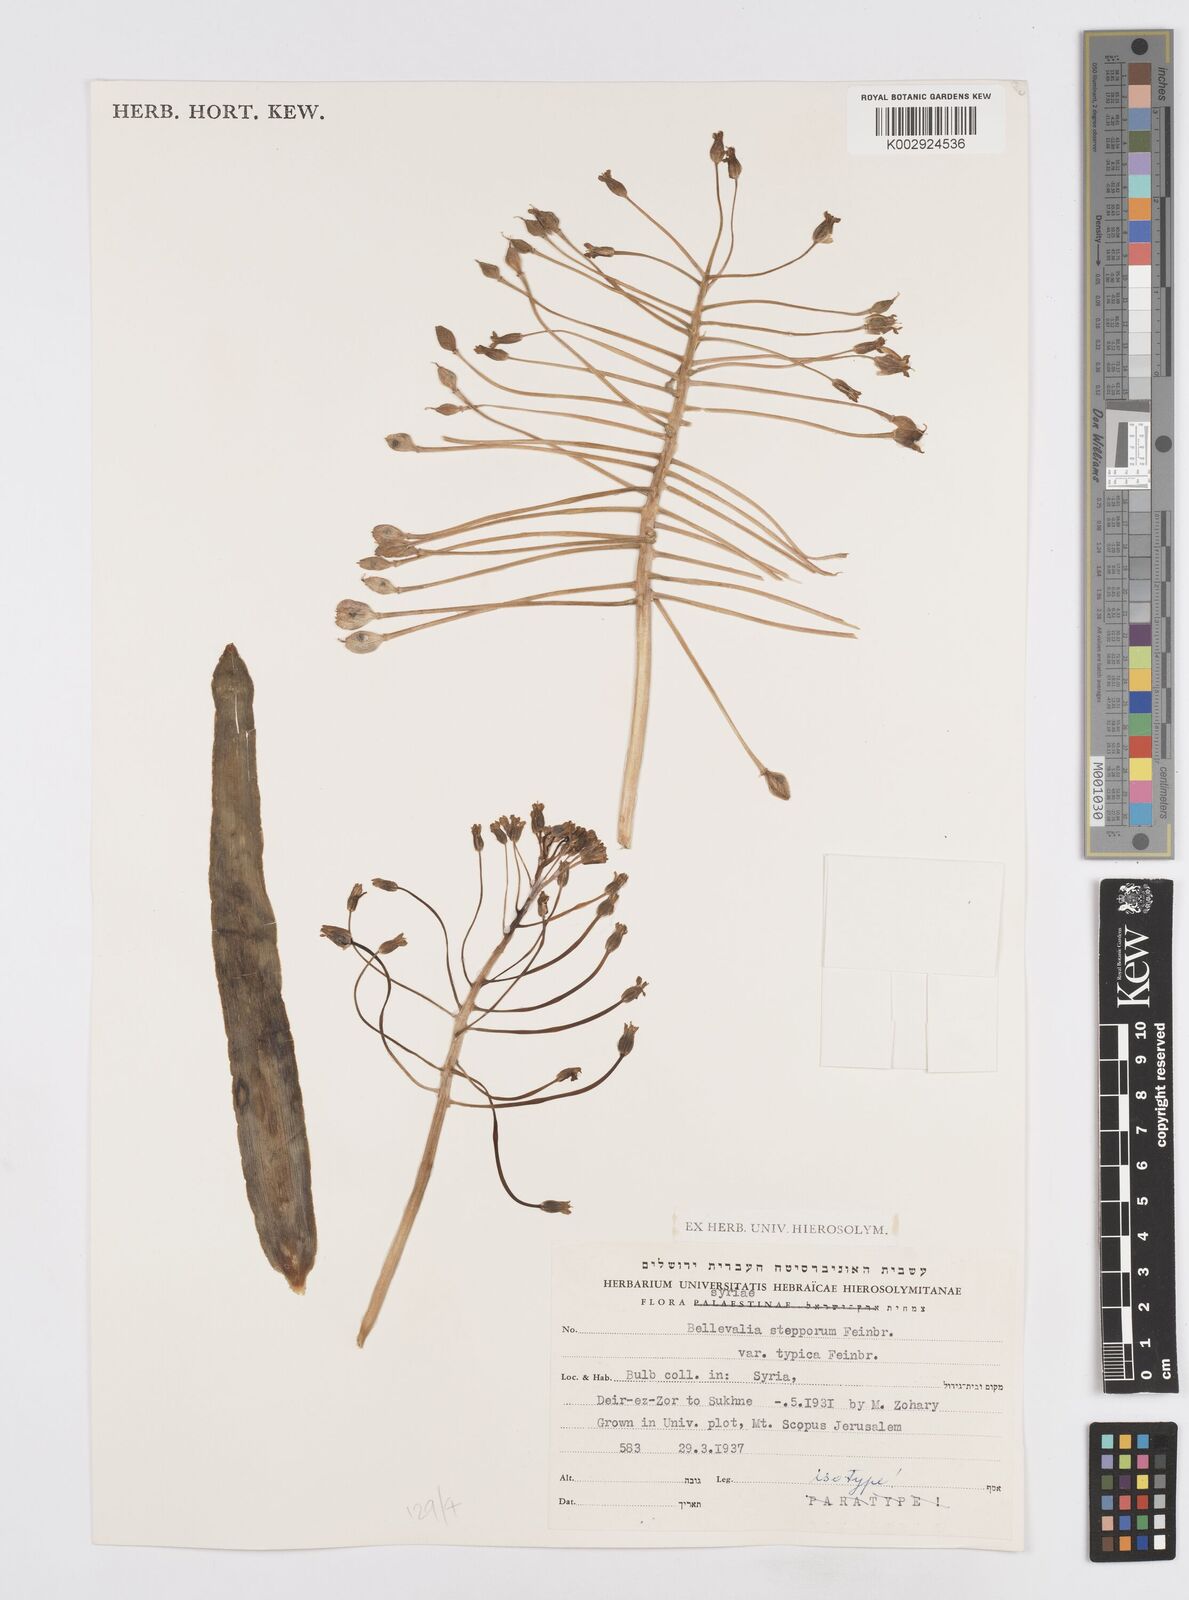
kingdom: Plantae
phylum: Tracheophyta
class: Liliopsida
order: Asparagales
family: Asparagaceae
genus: Bellevalia
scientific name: Bellevalia stepporum
